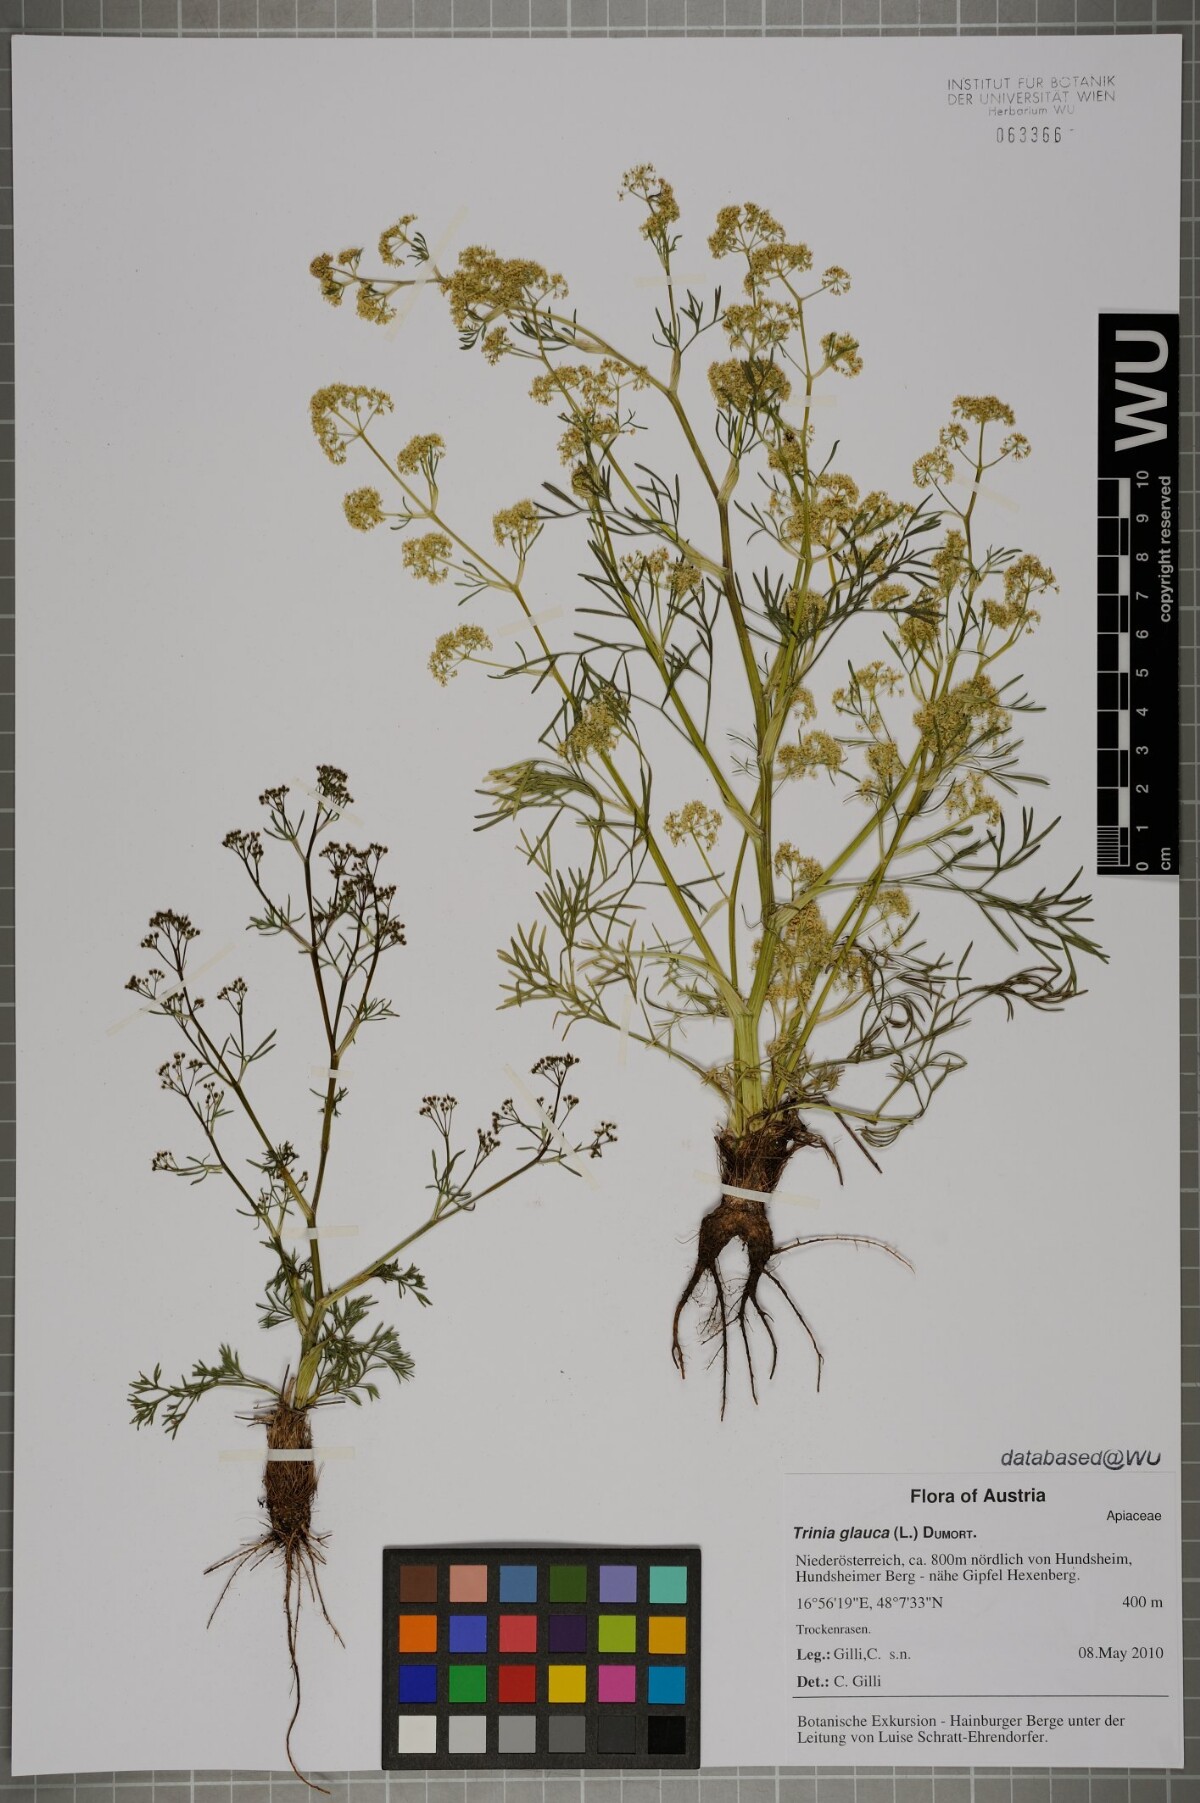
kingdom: Plantae
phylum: Tracheophyta
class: Magnoliopsida
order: Apiales
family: Apiaceae
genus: Trinia
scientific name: Trinia glauca
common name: Honewort
